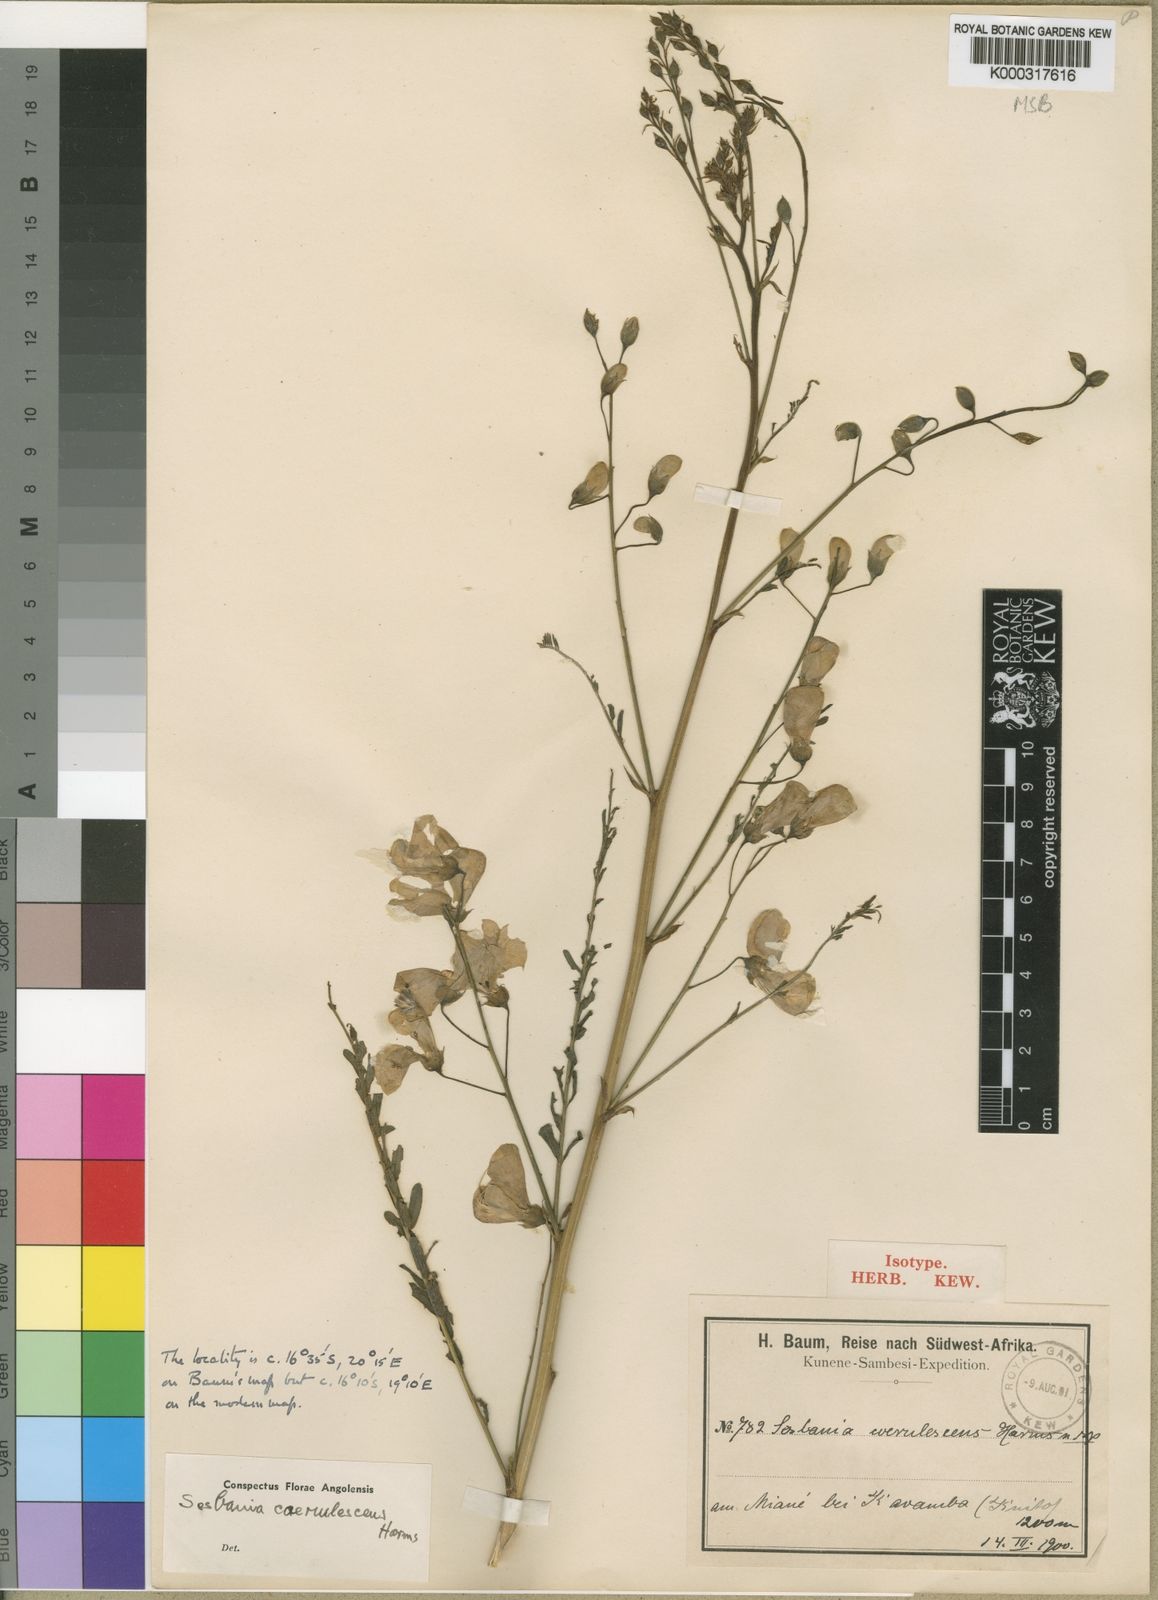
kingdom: Plantae
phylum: Tracheophyta
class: Magnoliopsida
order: Fabales
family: Fabaceae
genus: Sesbania
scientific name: Sesbania coerulescens
